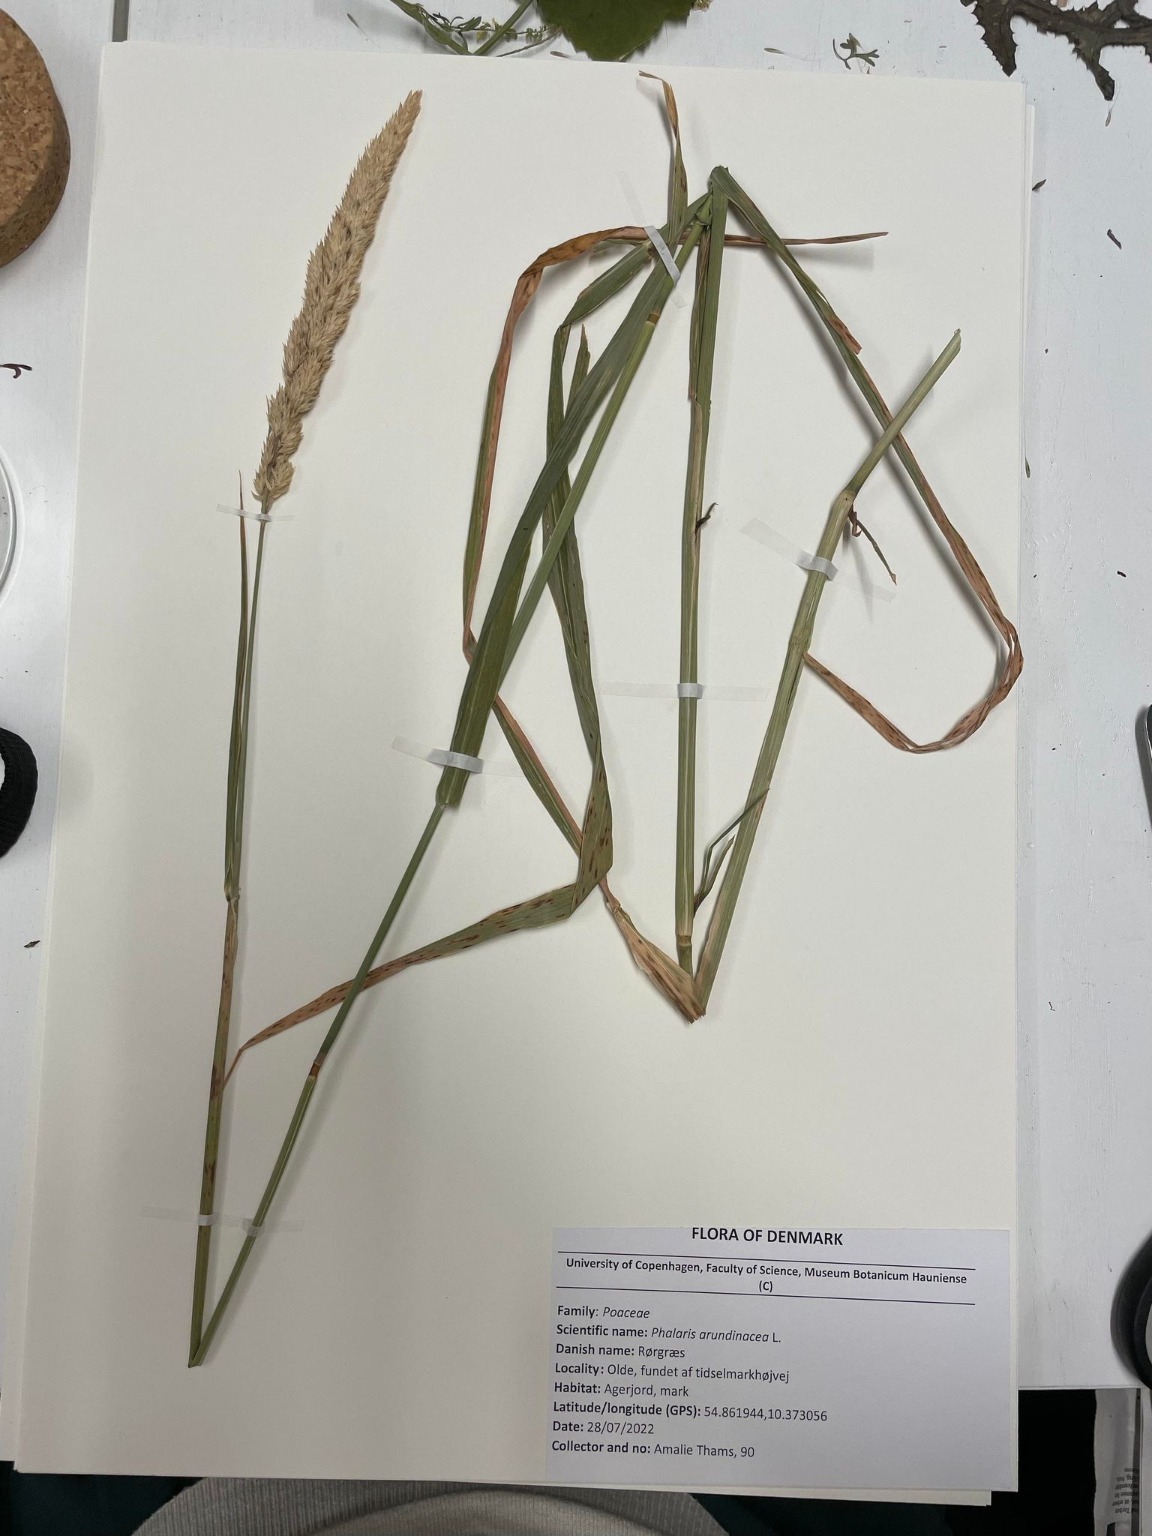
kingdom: Plantae
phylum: Tracheophyta
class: Liliopsida
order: Poales
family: Poaceae
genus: Phalaris
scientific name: Phalaris arundinacea
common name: Rørgræs
